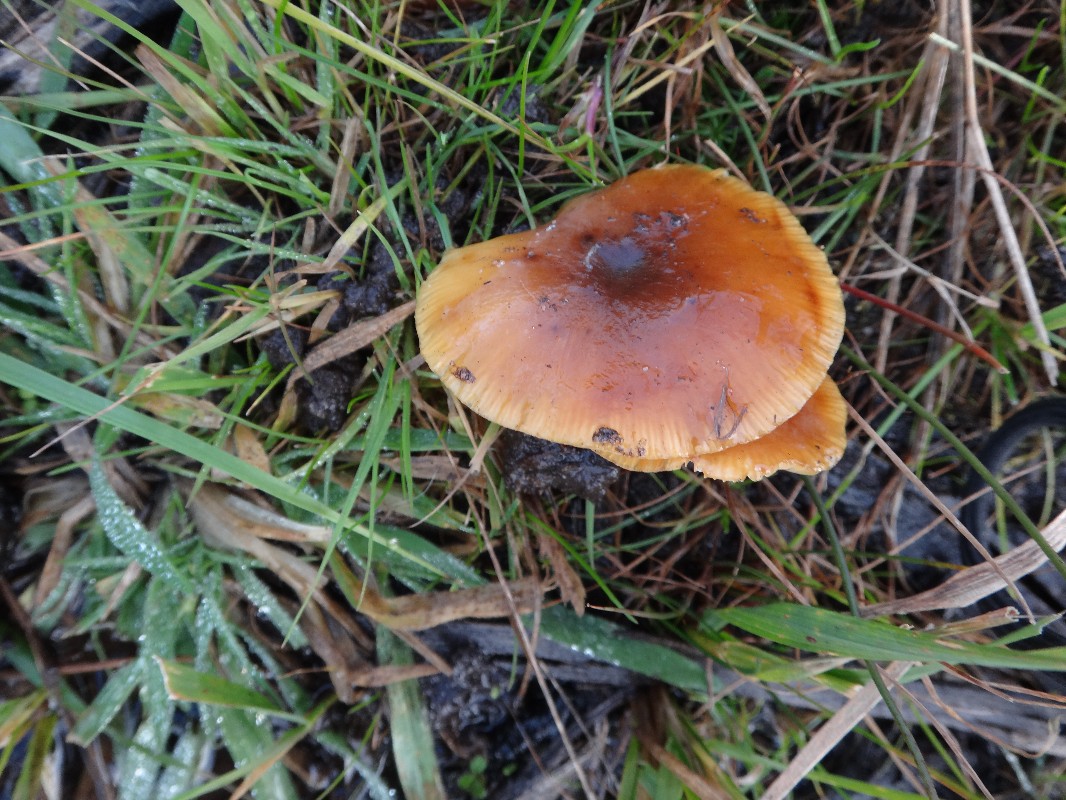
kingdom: Fungi
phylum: Basidiomycota
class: Agaricomycetes
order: Agaricales
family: Physalacriaceae
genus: Flammulina
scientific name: Flammulina elastica
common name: pile-fløjlsfod
